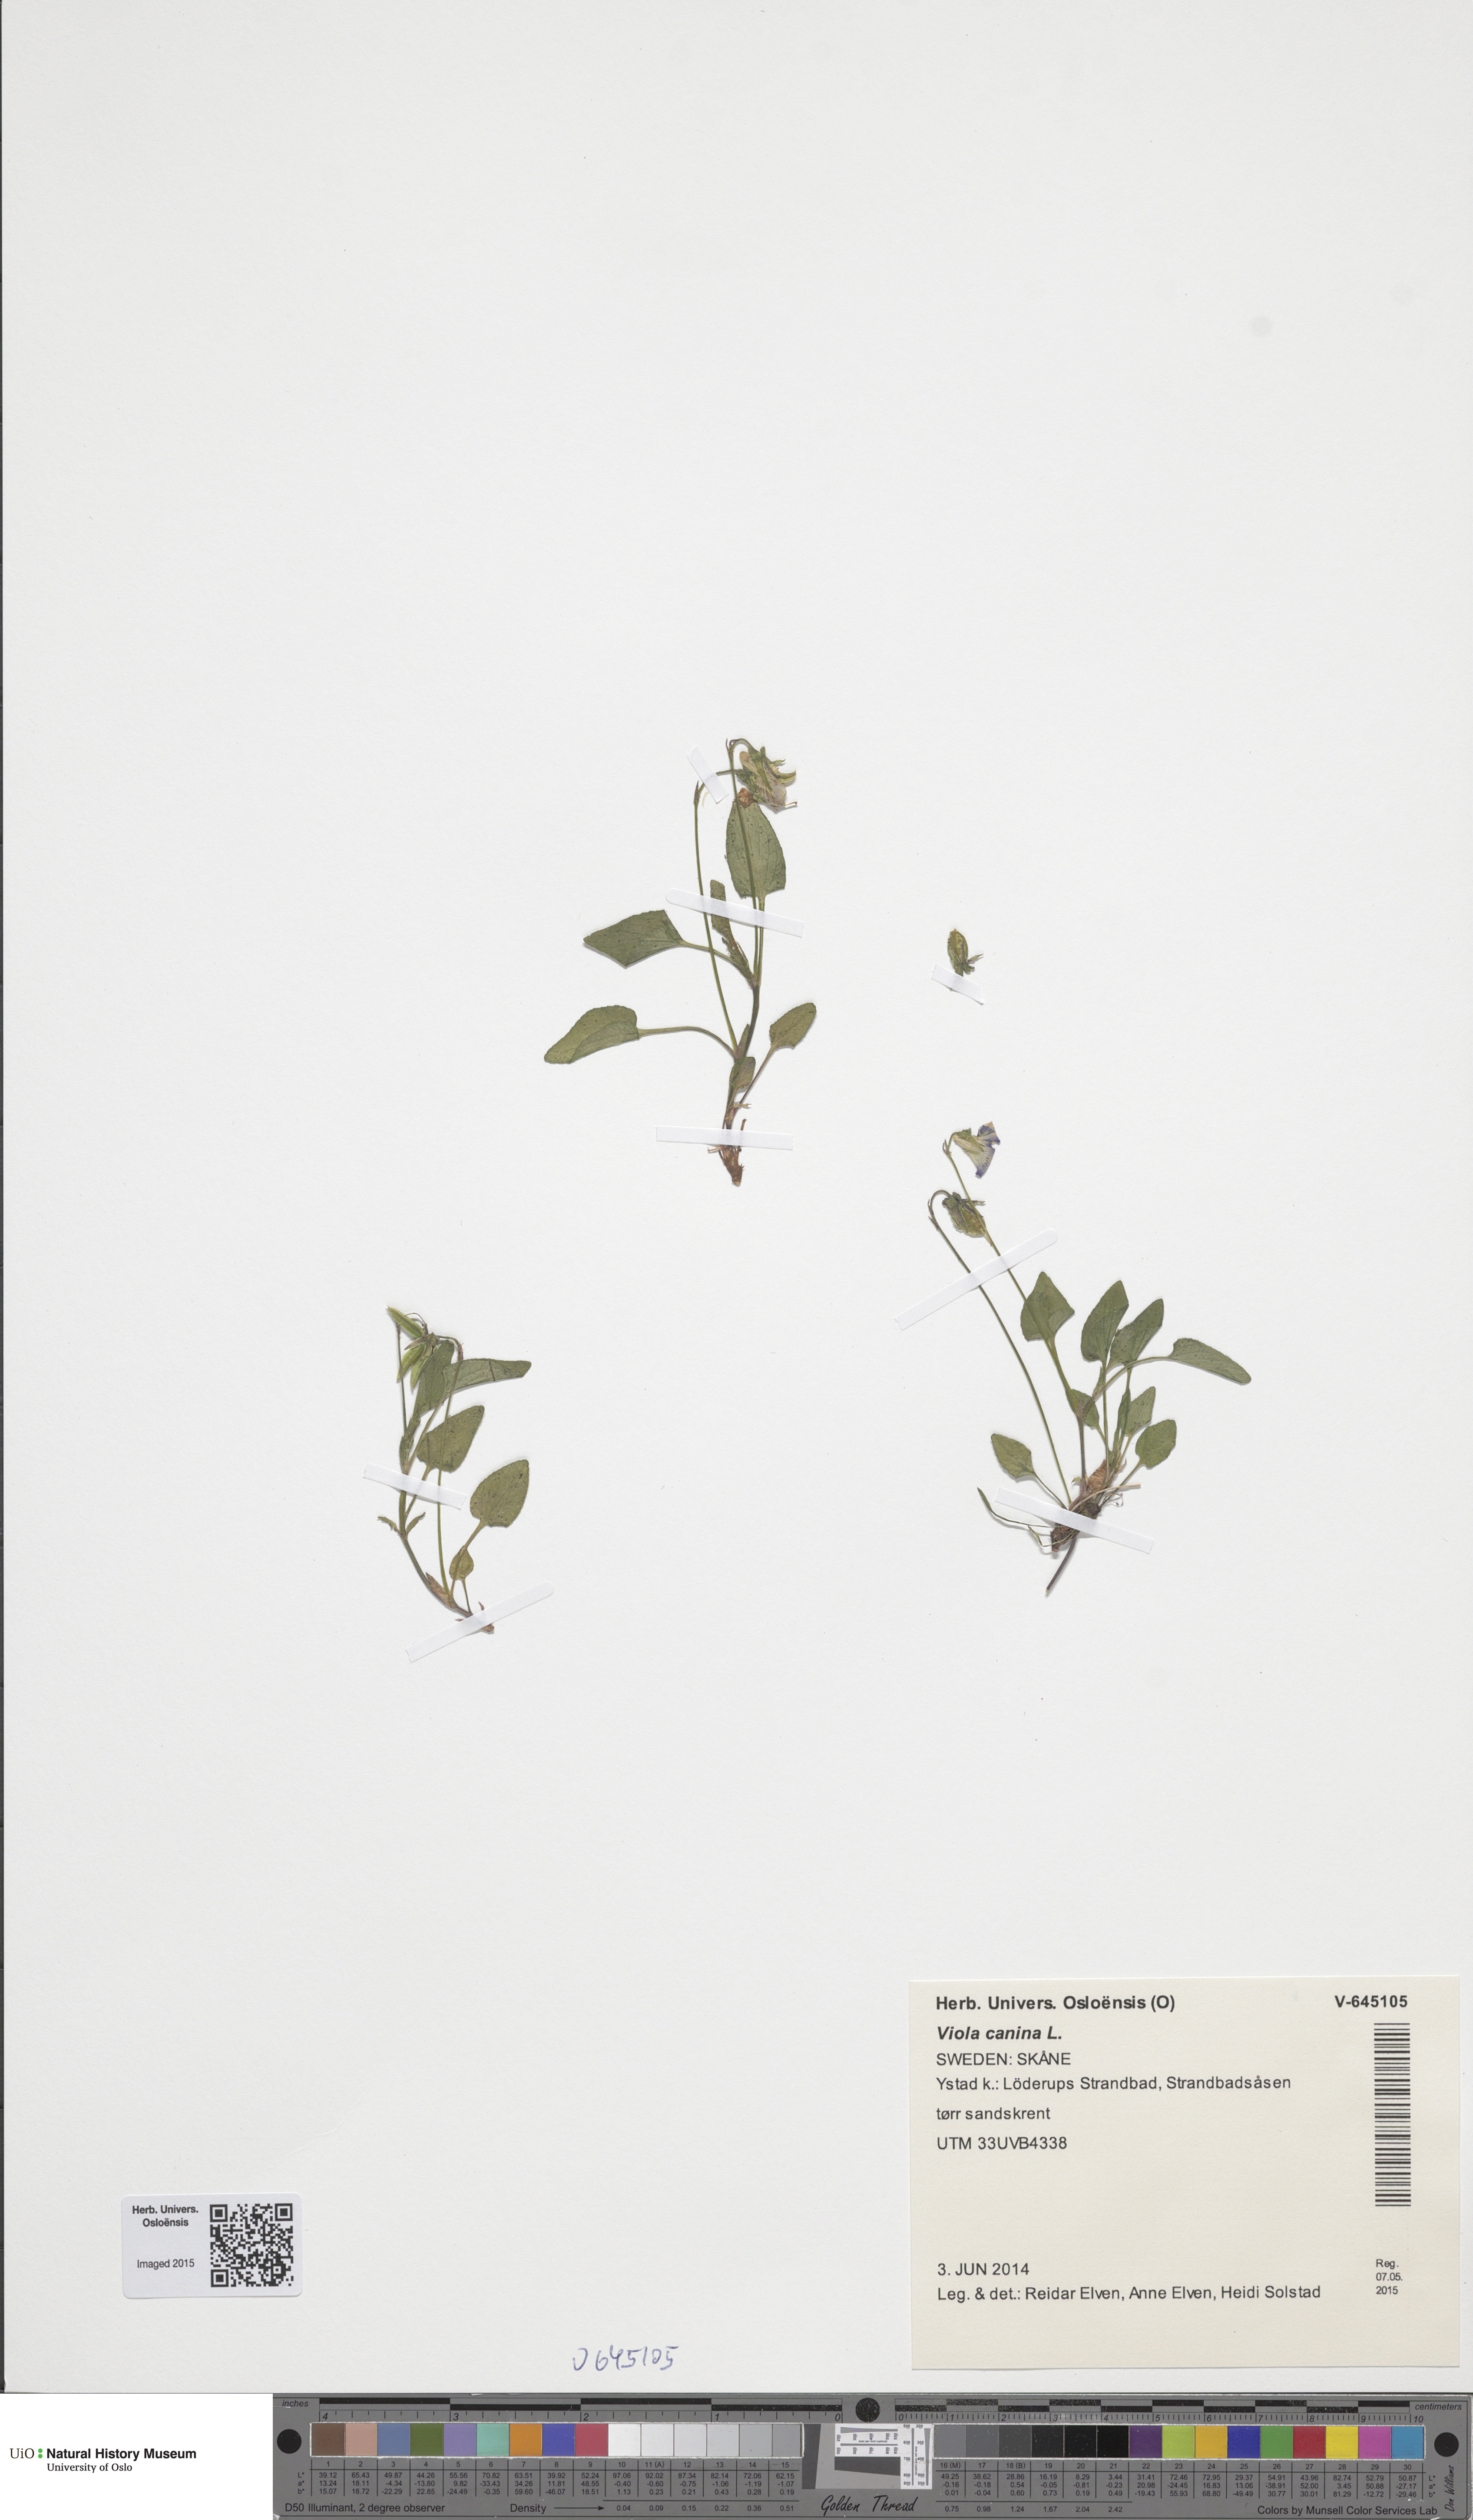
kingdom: Plantae
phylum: Tracheophyta
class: Magnoliopsida
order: Malpighiales
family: Violaceae
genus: Viola
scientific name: Viola canina
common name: Heath dog-violet
